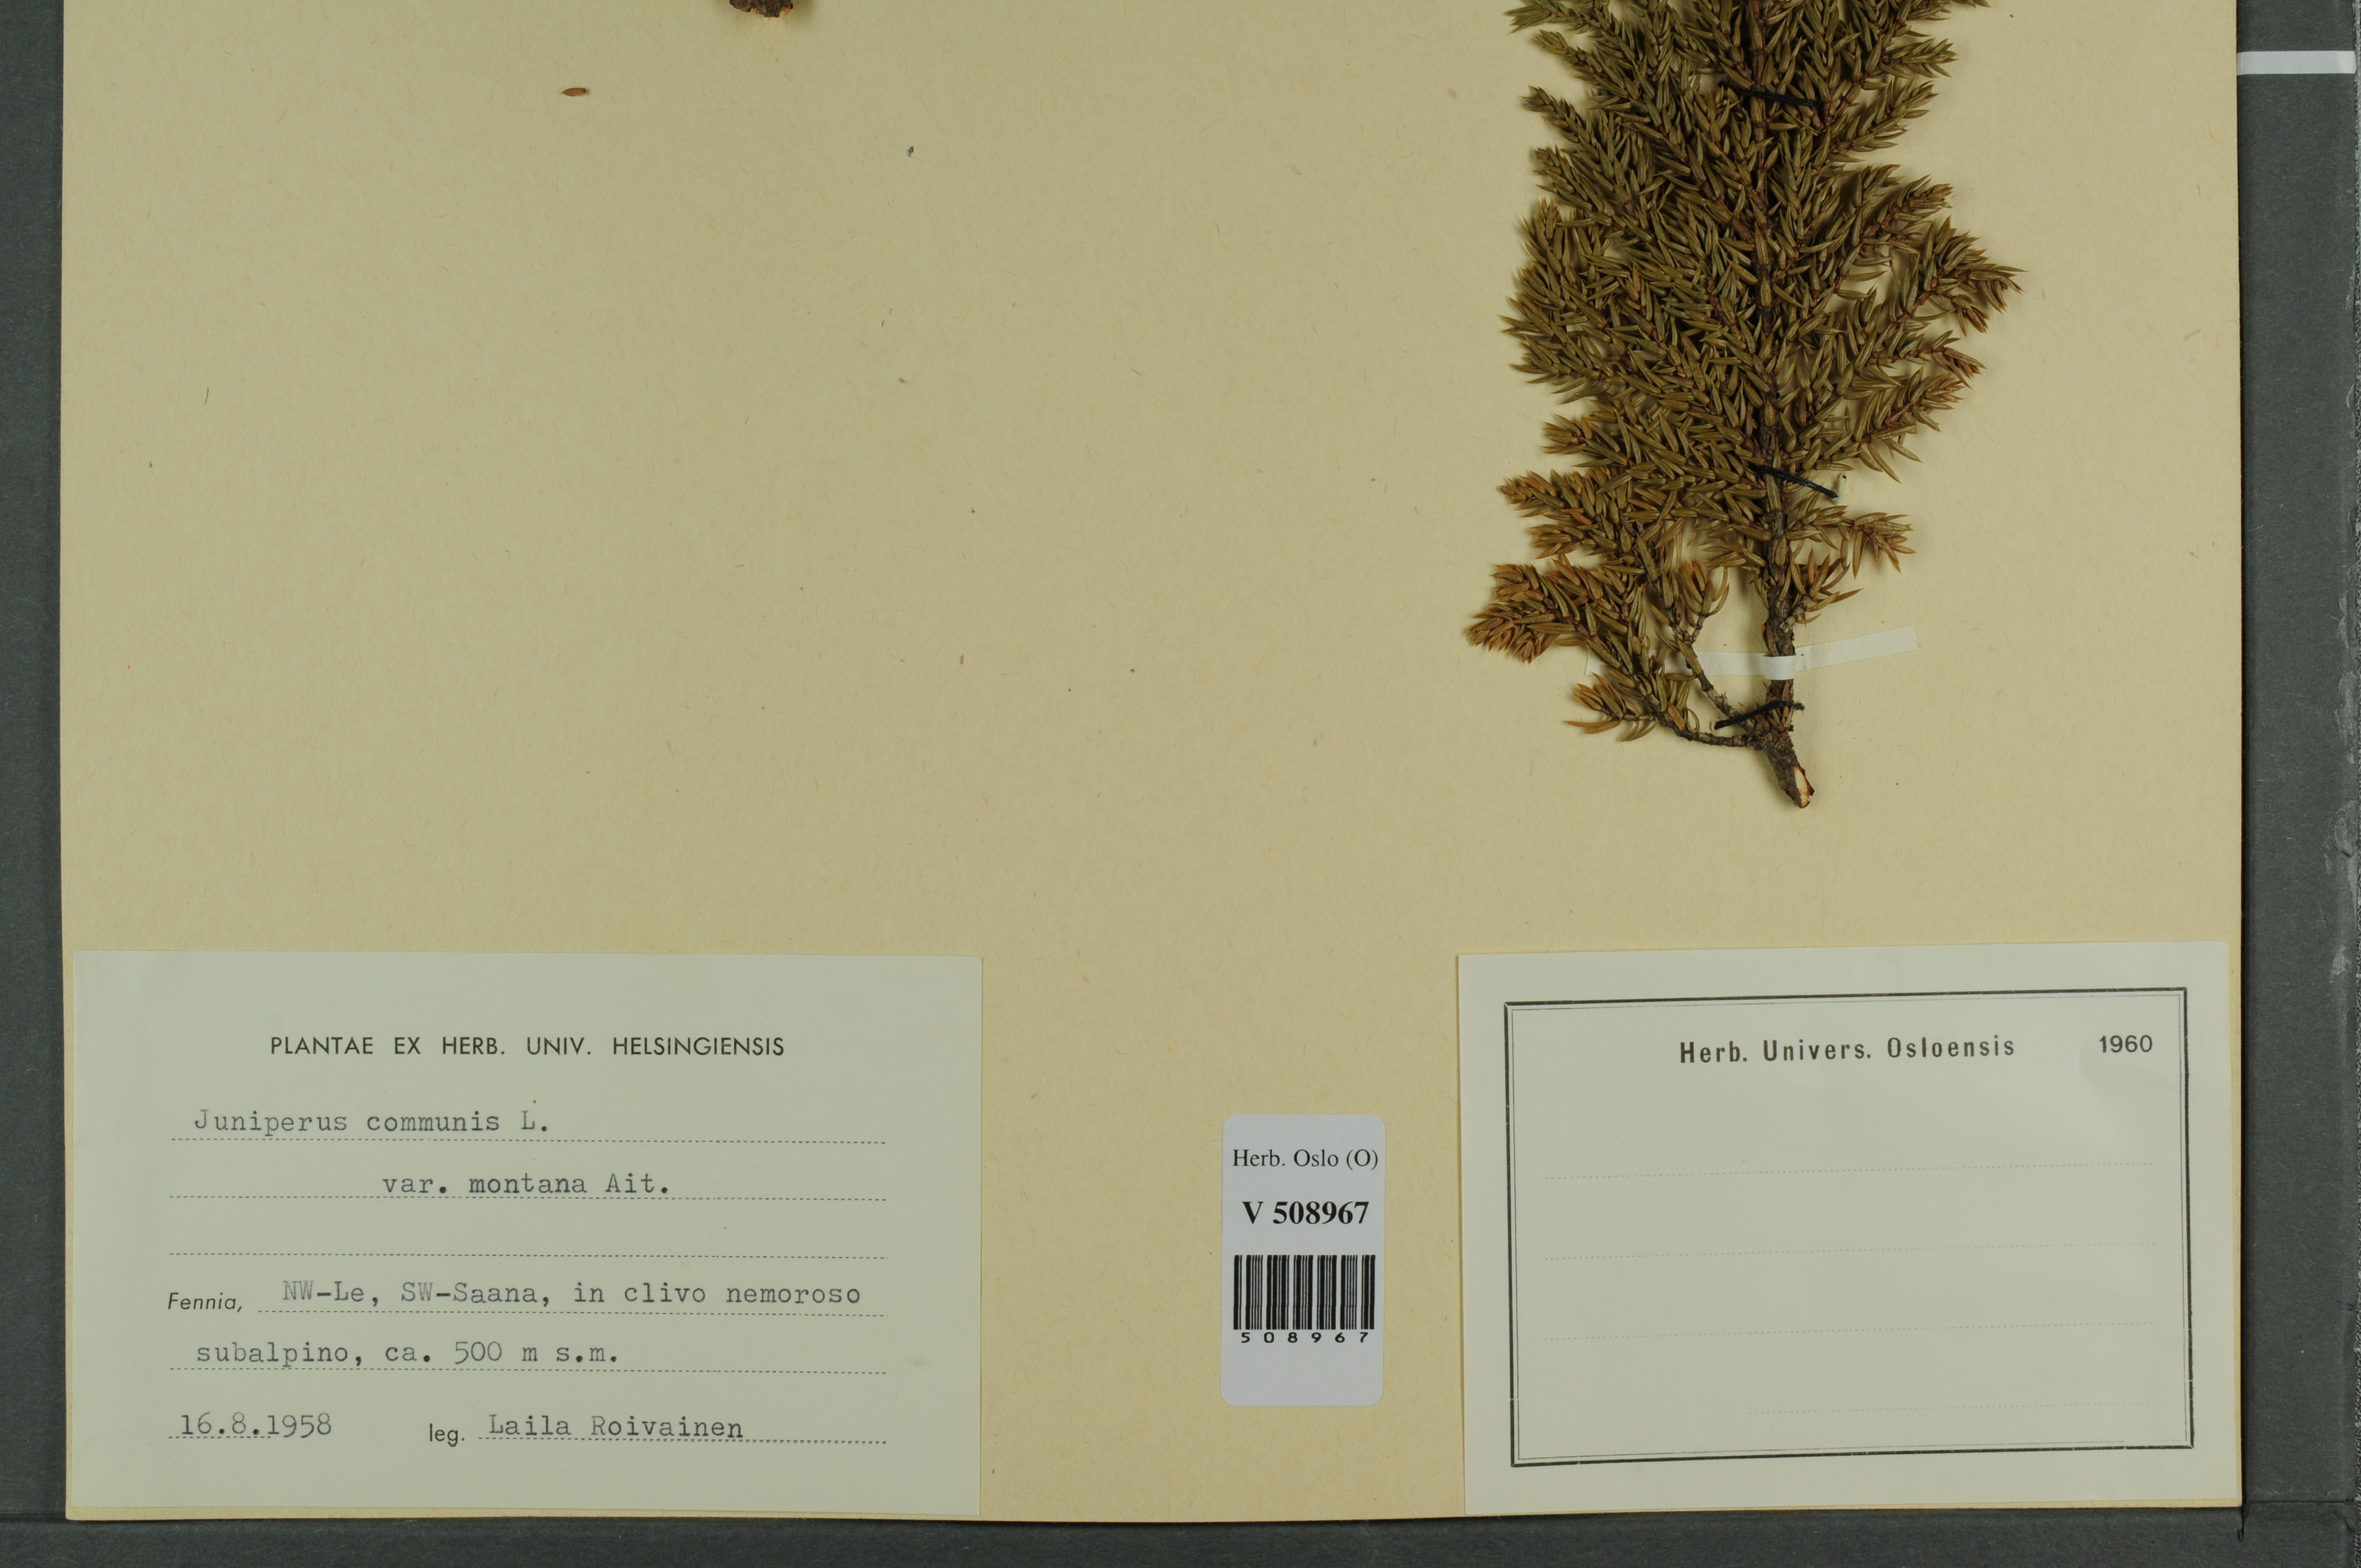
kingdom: Plantae
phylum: Tracheophyta
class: Pinopsida
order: Pinales
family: Cupressaceae
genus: Juniperus
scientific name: Juniperus communis
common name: Common juniper
